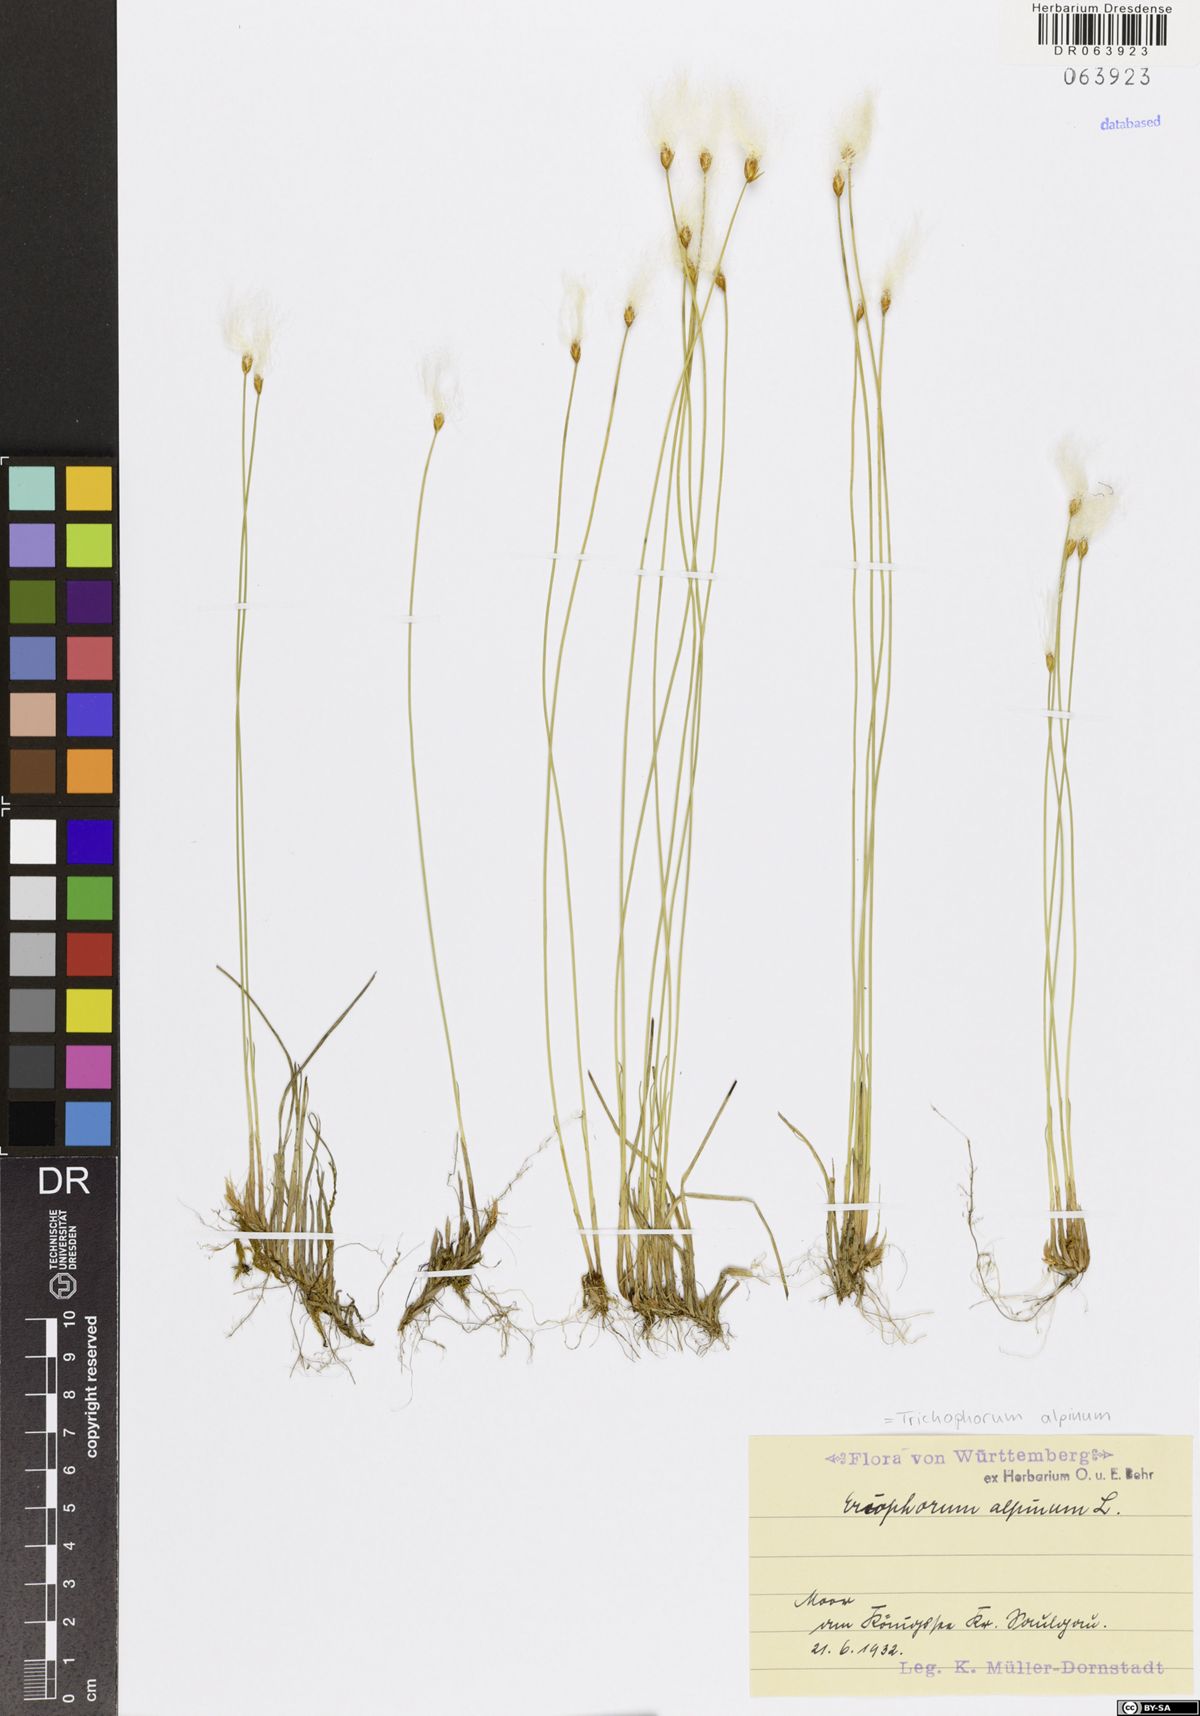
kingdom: Plantae
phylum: Tracheophyta
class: Liliopsida
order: Poales
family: Cyperaceae
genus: Trichophorum
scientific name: Trichophorum alpinum
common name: Alpine bulrush
